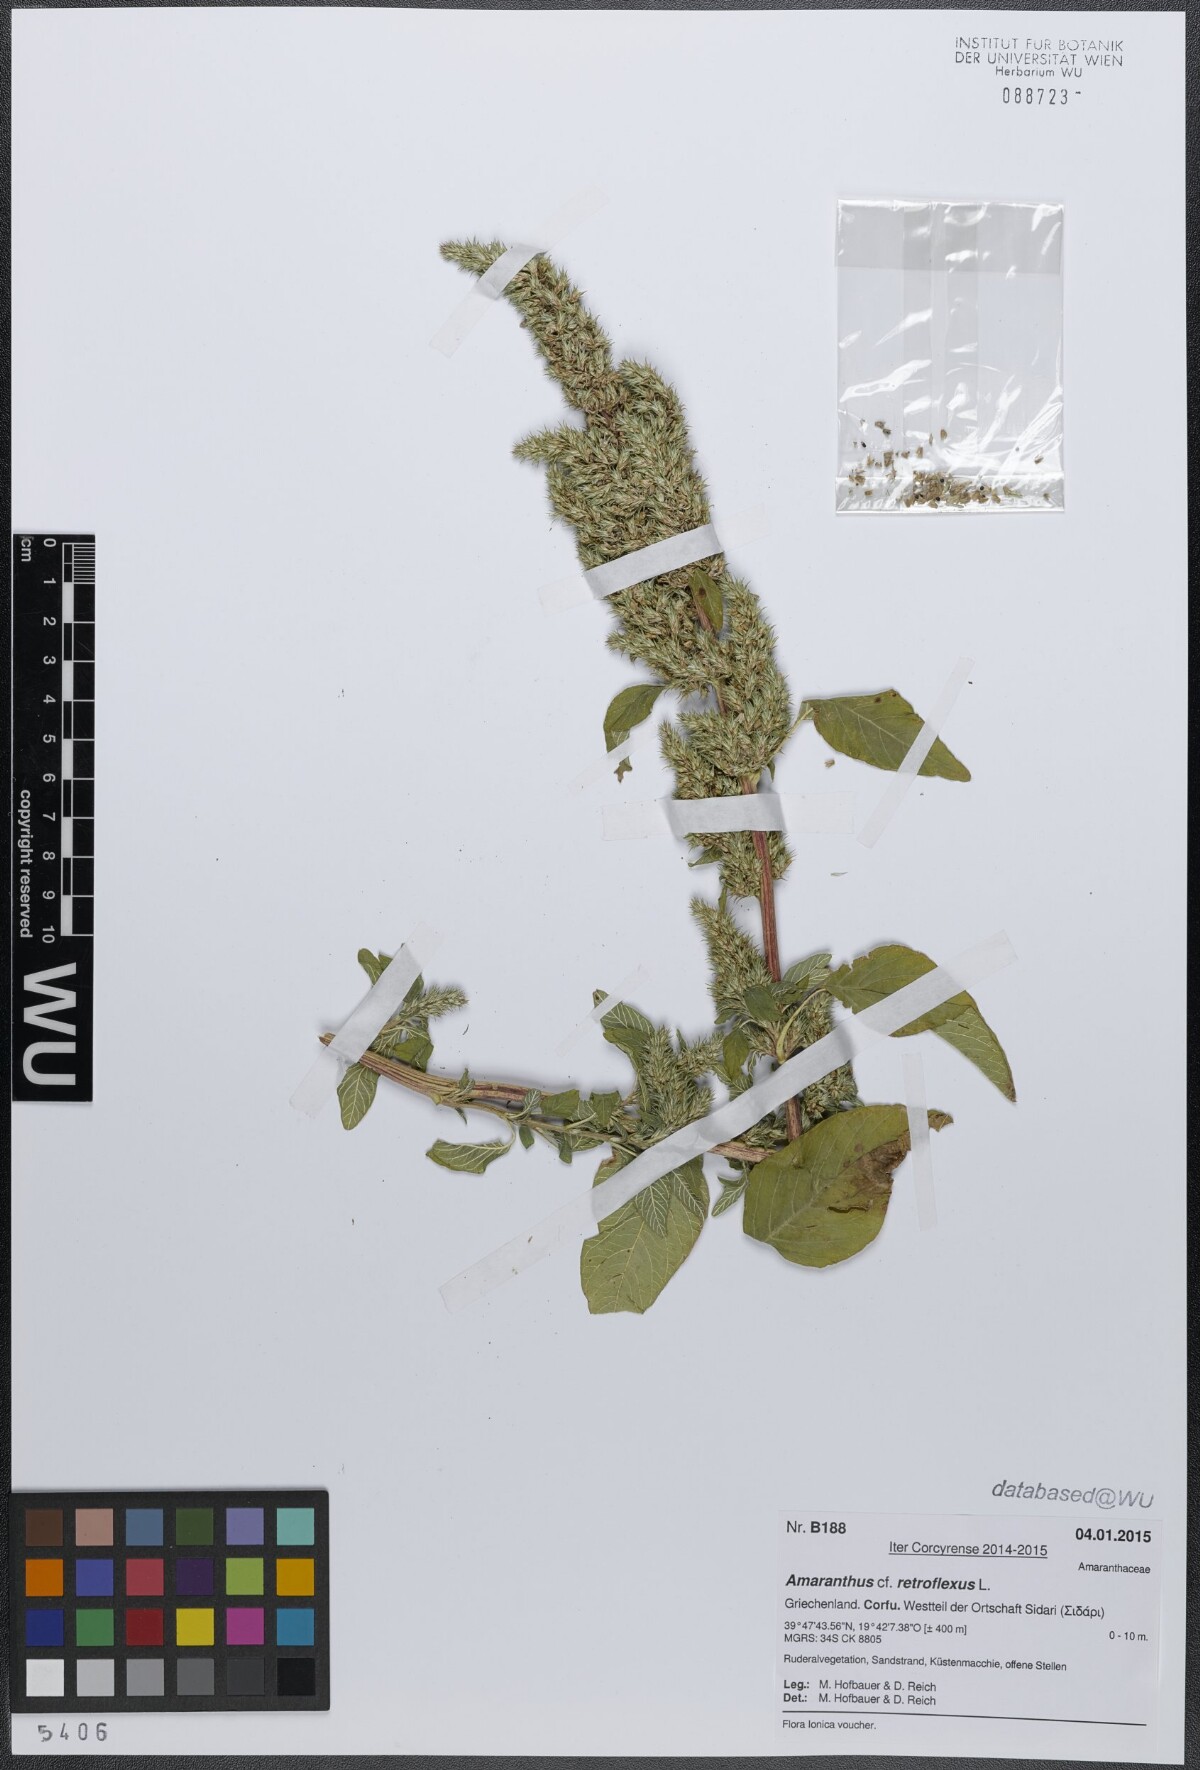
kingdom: Plantae
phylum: Tracheophyta
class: Magnoliopsida
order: Caryophyllales
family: Amaranthaceae
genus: Amaranthus
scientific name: Amaranthus retroflexus
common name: Redroot amaranth
